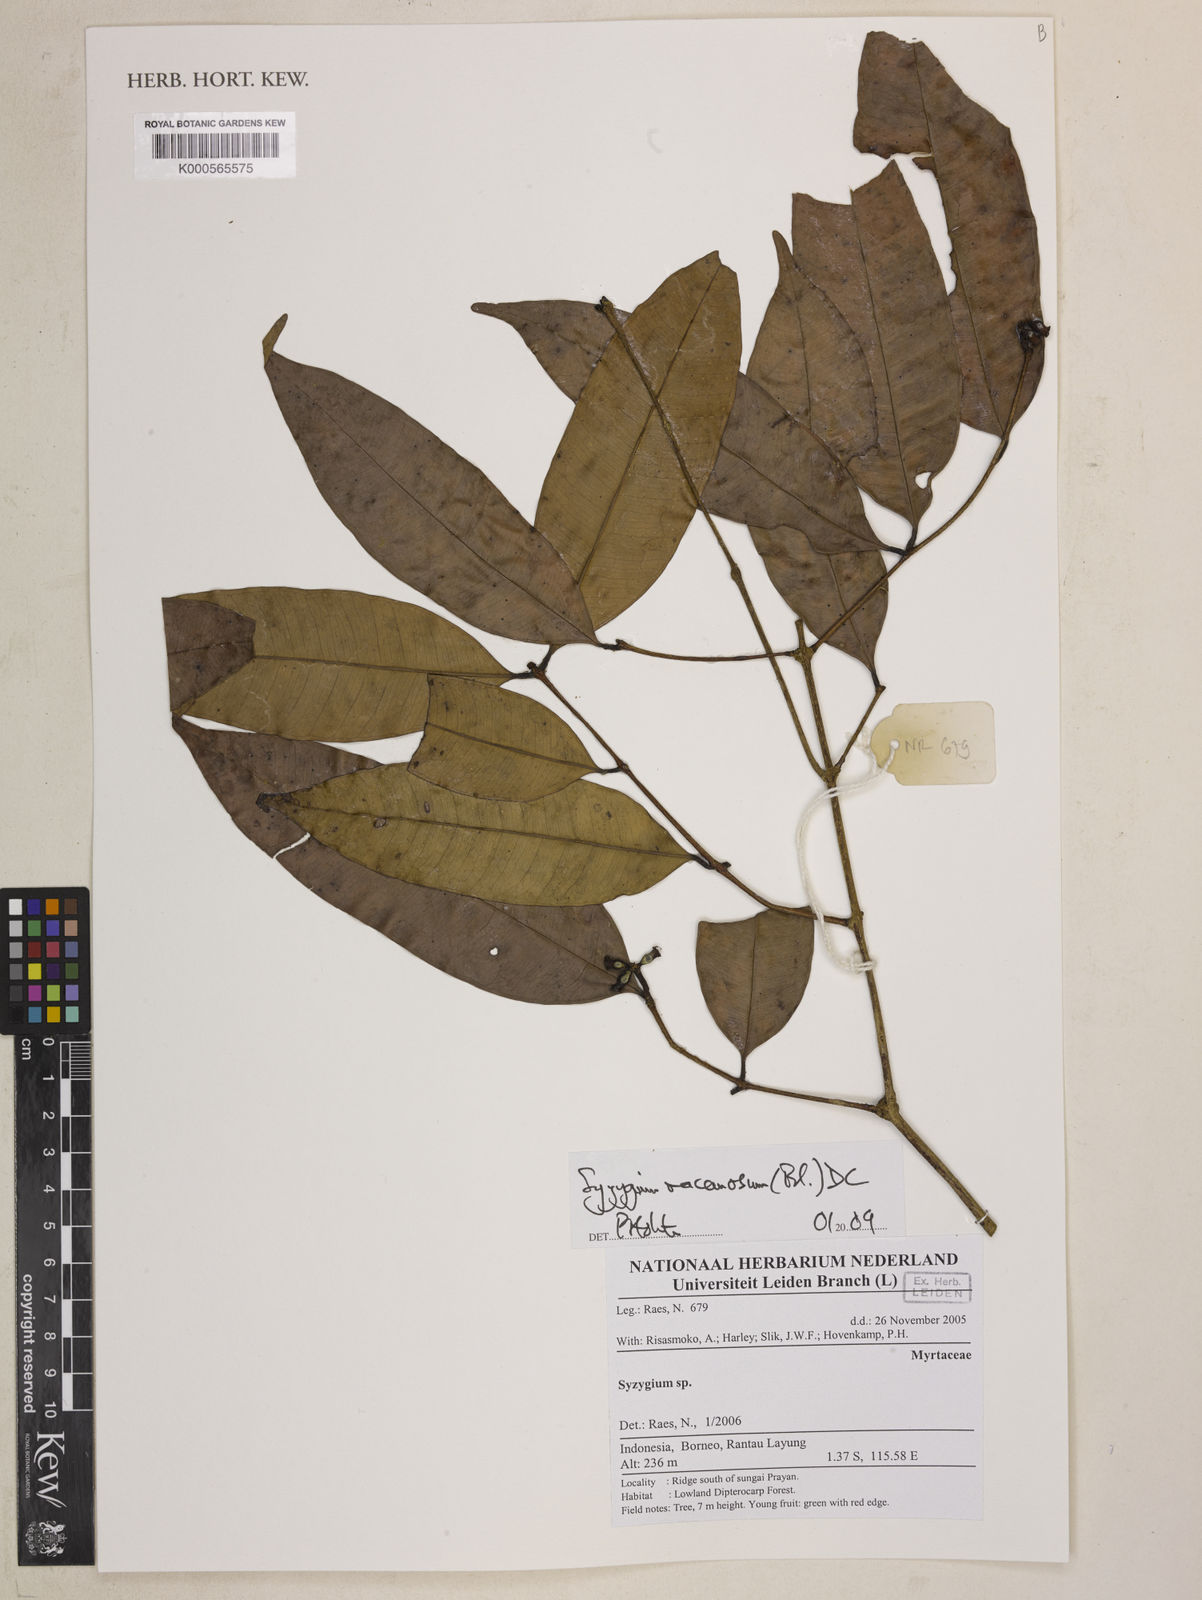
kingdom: Plantae
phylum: Tracheophyta
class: Magnoliopsida
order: Myrtales
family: Myrtaceae
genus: Syzygium
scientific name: Syzygium racemosum
